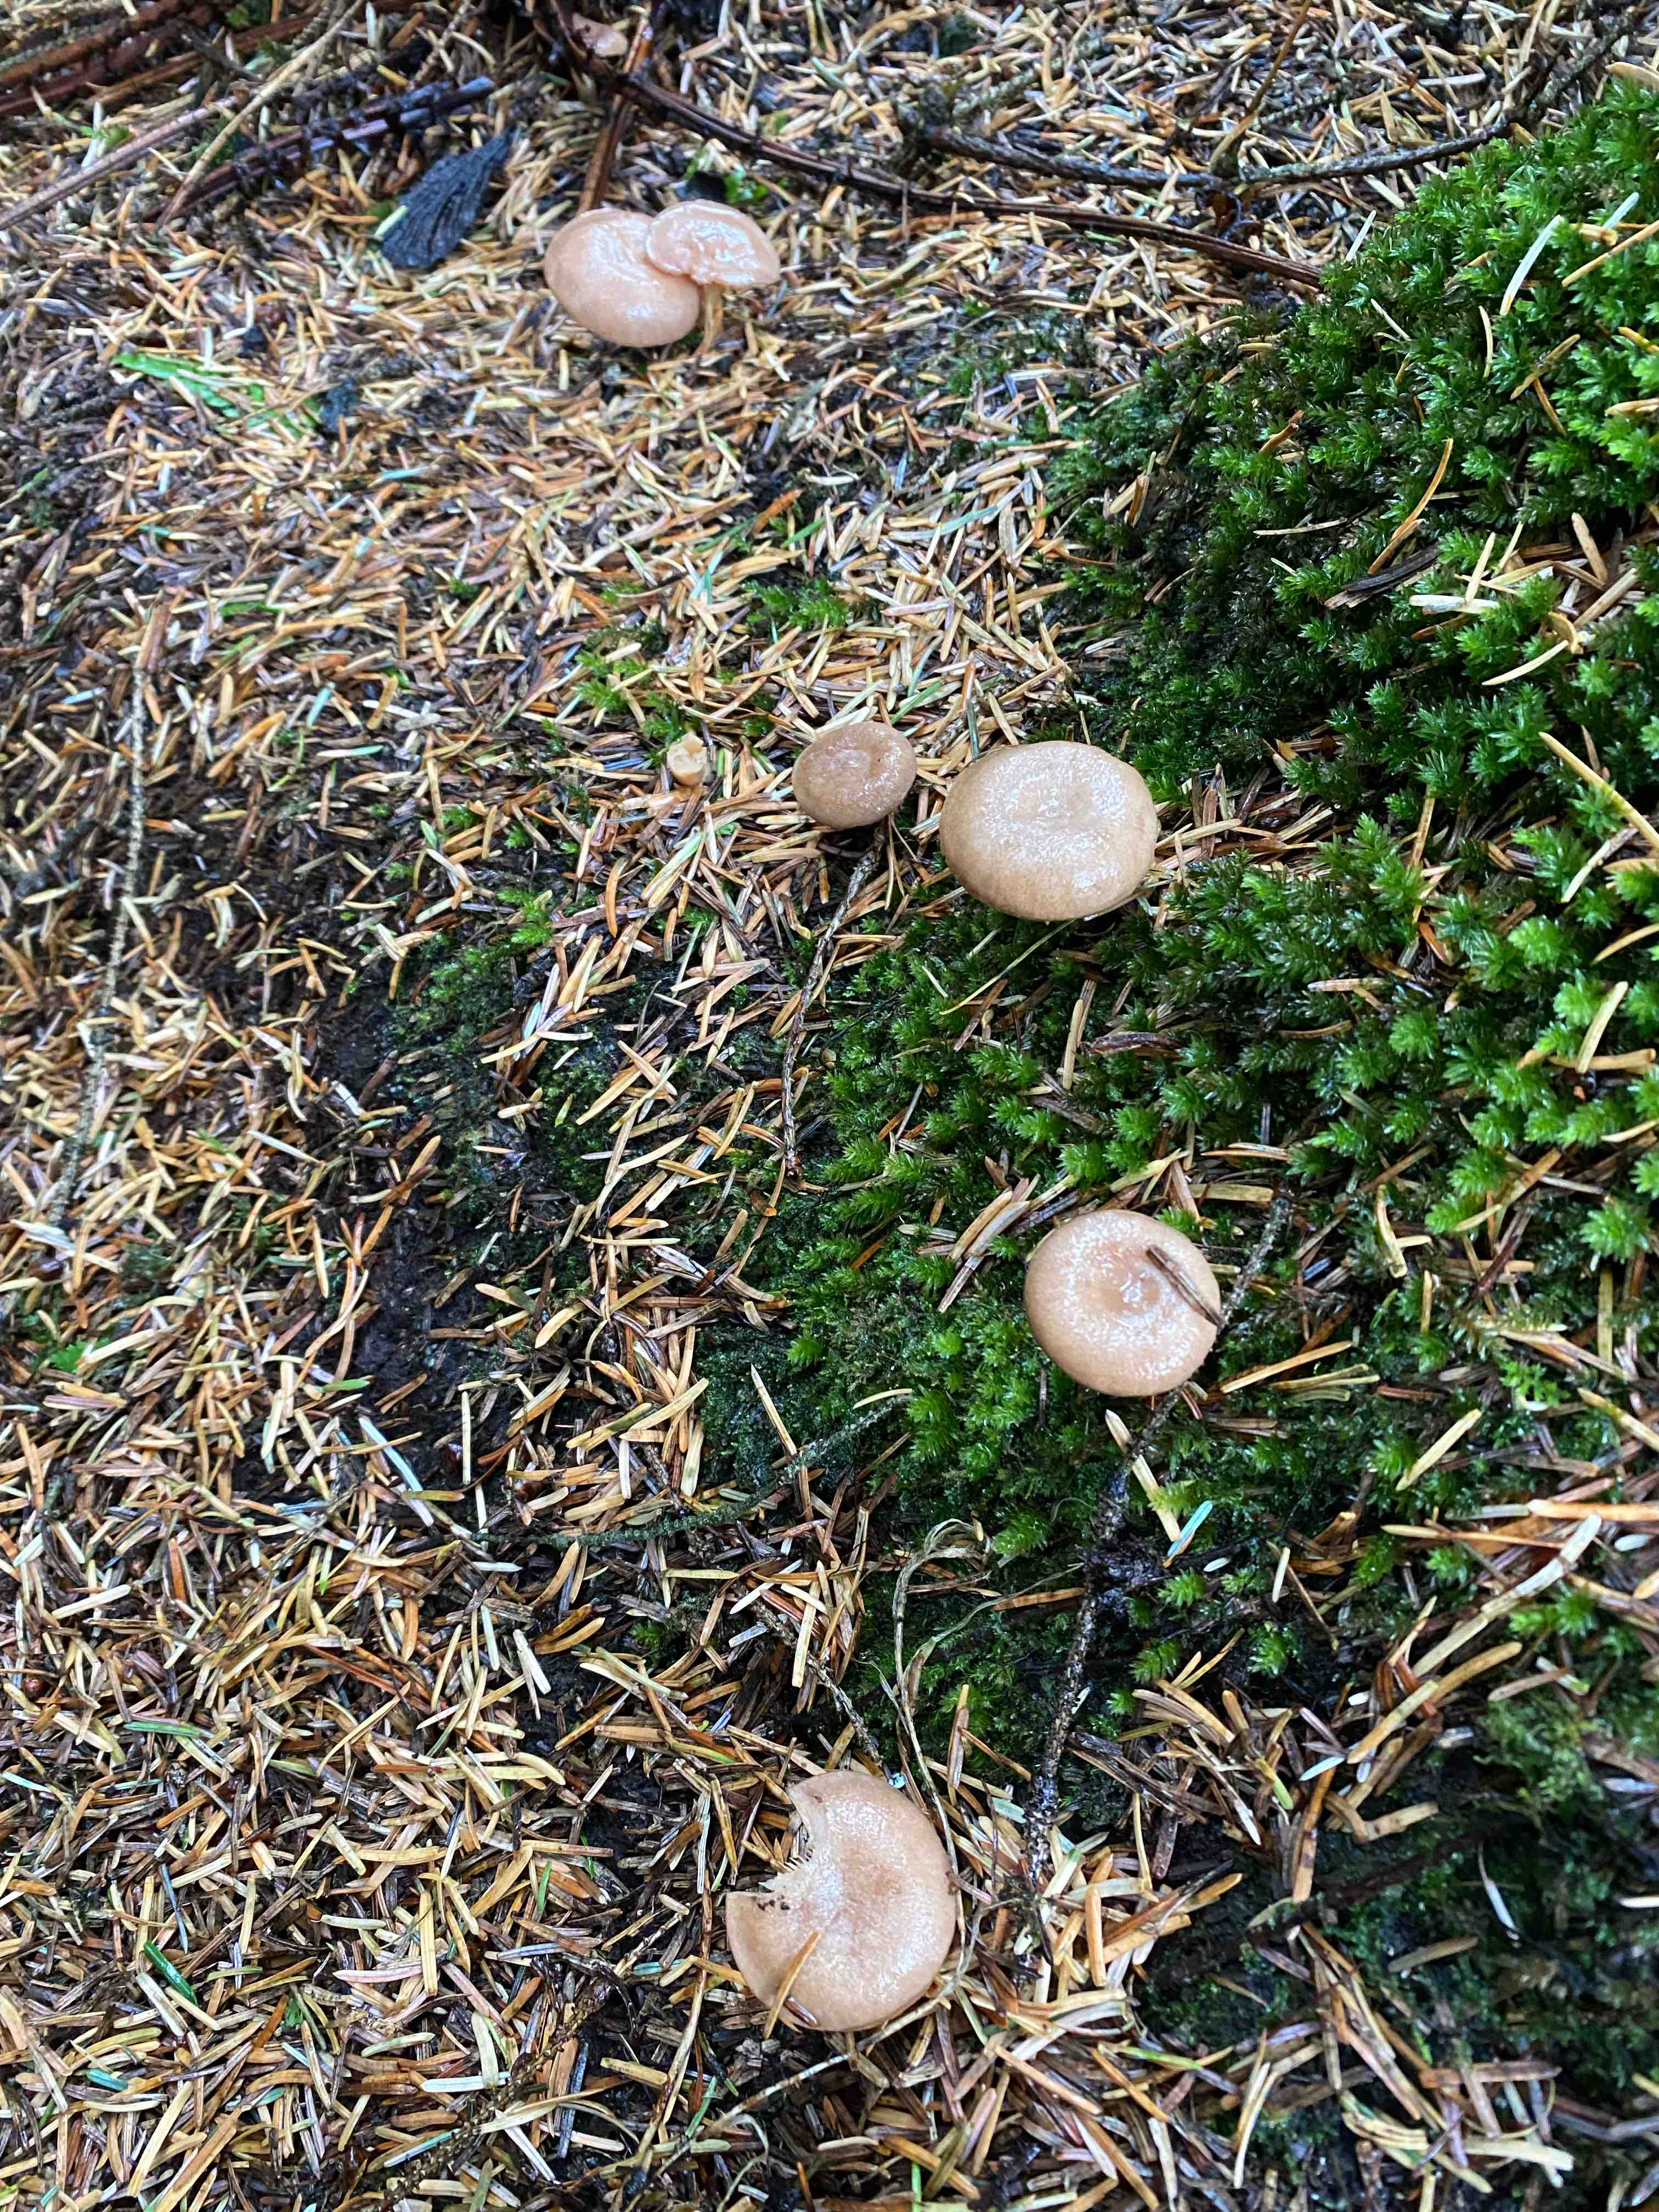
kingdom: Fungi
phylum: Basidiomycota
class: Agaricomycetes
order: Russulales
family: Russulaceae
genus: Lactarius
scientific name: Lactarius glyciosmus
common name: kokos-mælkehat
